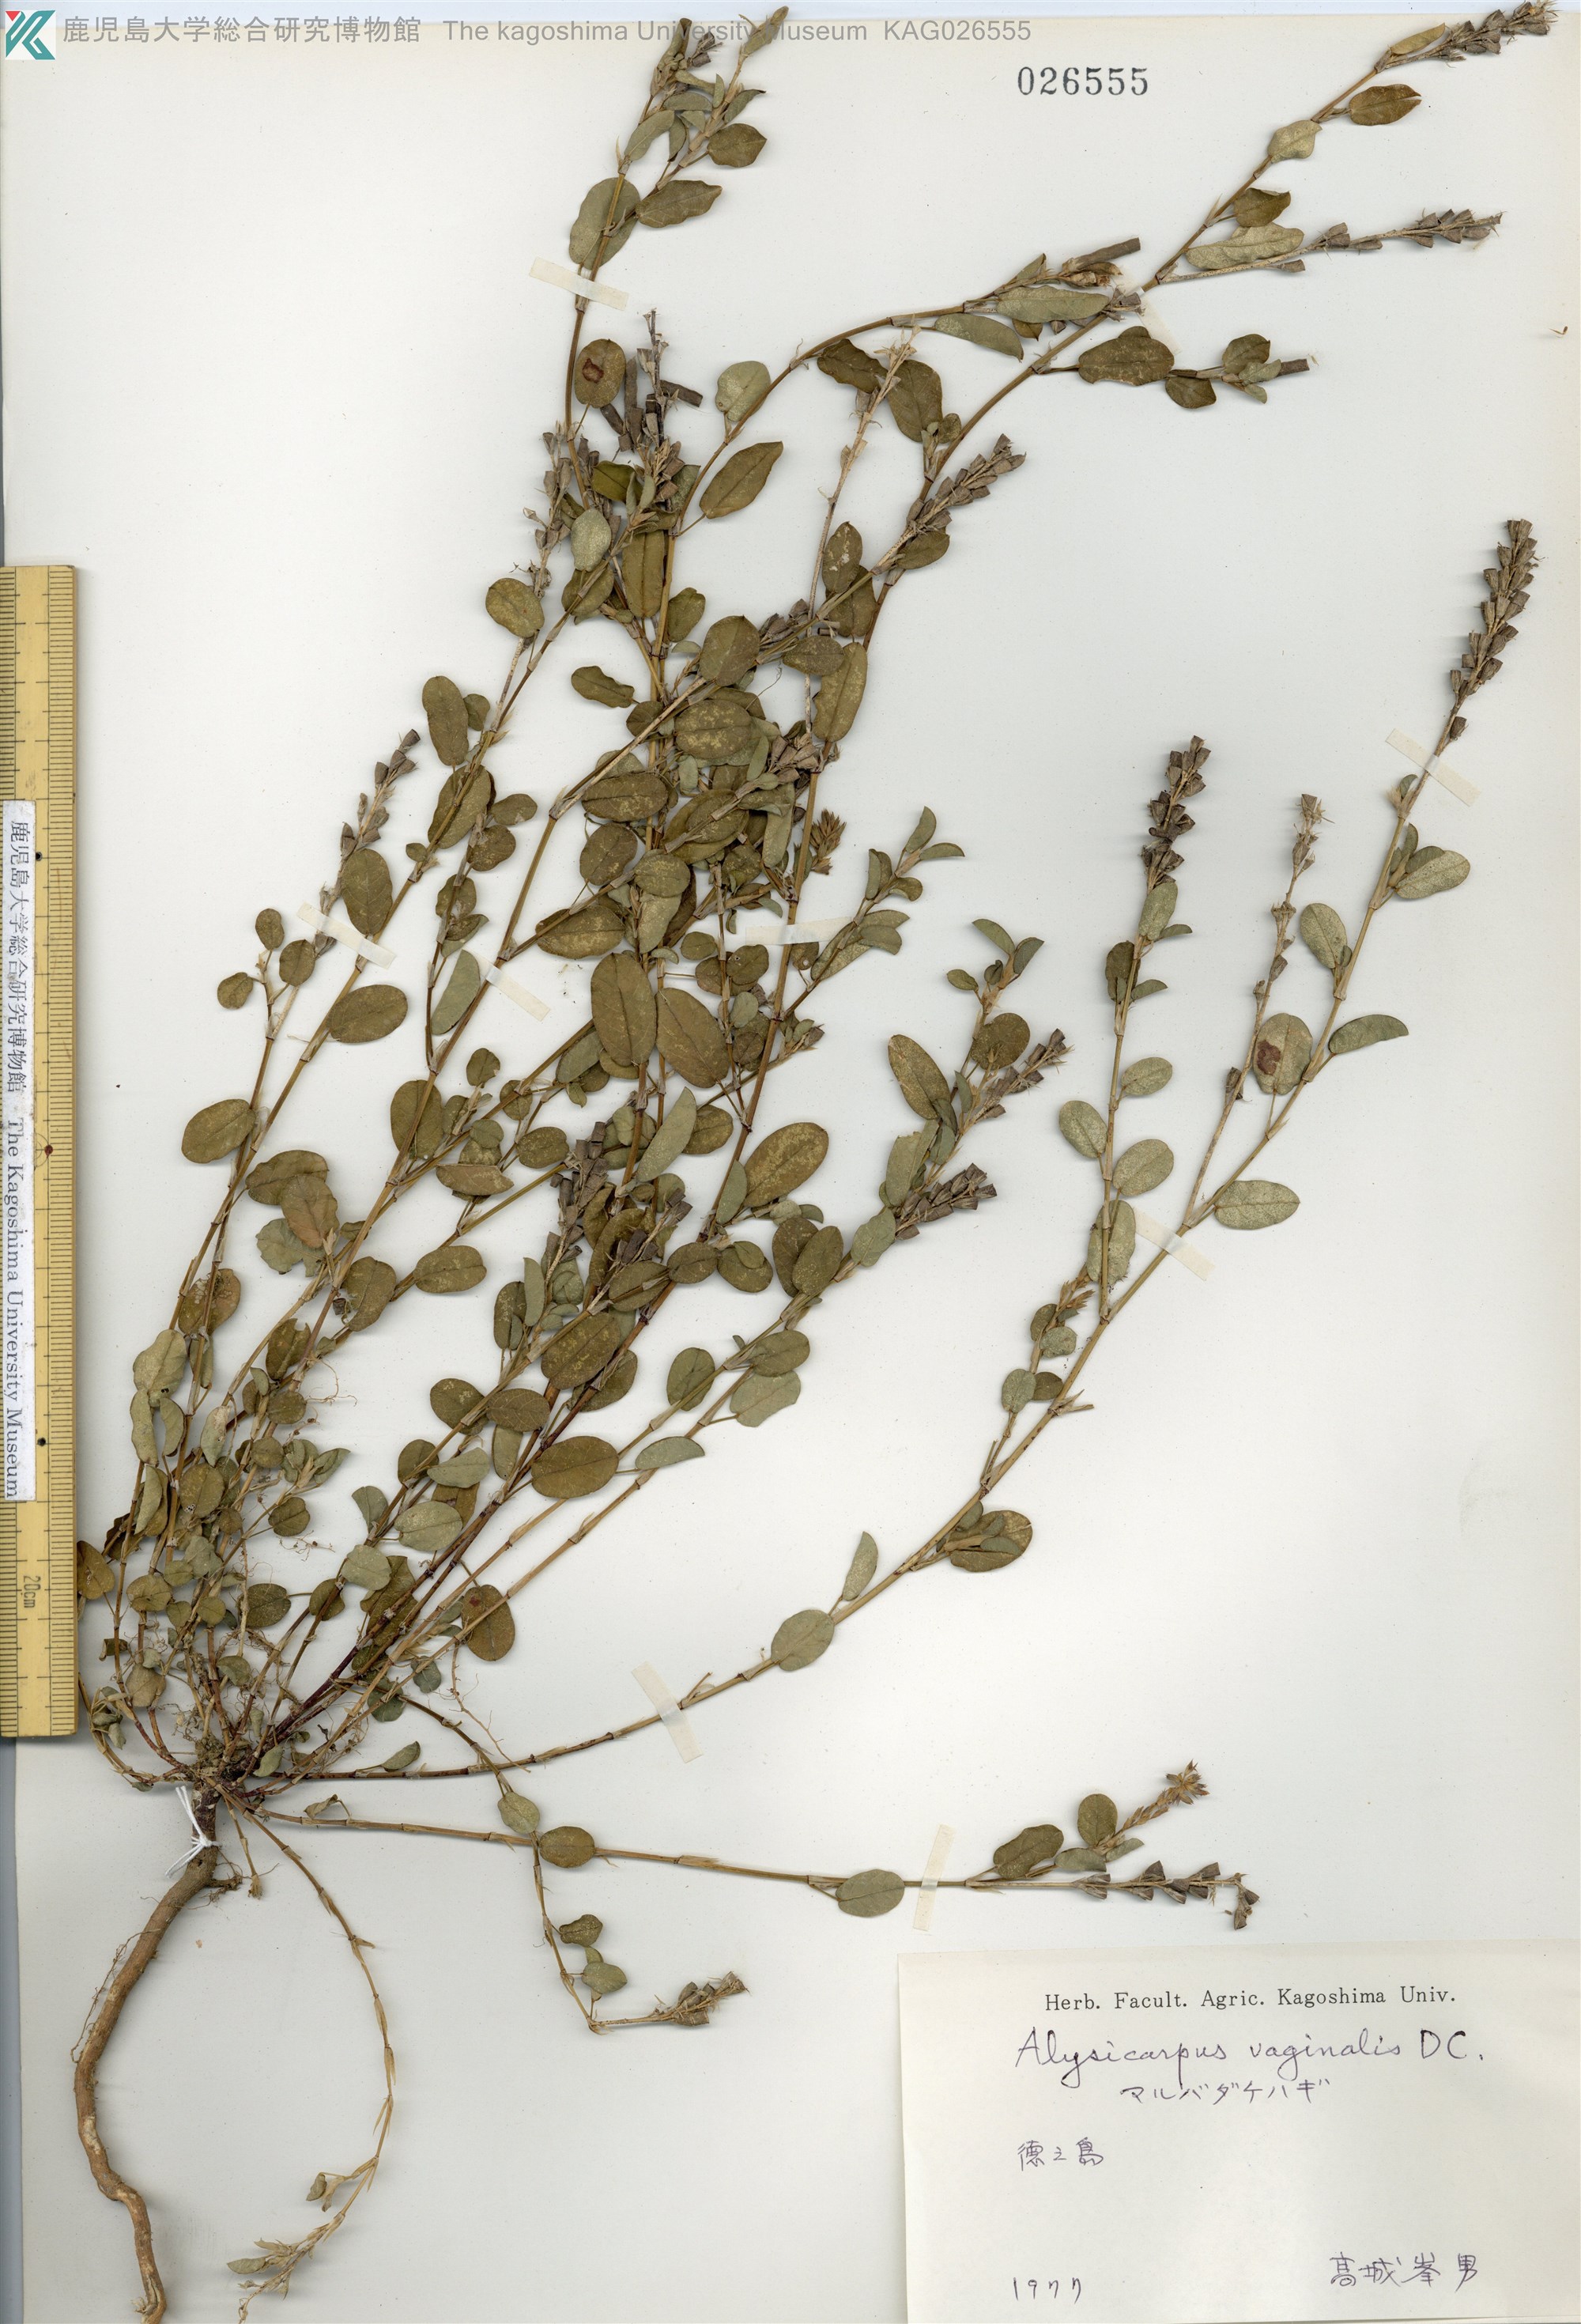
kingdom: Plantae
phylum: Tracheophyta
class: Magnoliopsida
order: Fabales
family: Fabaceae
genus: Alysicarpus
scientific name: Alysicarpus vaginalis
